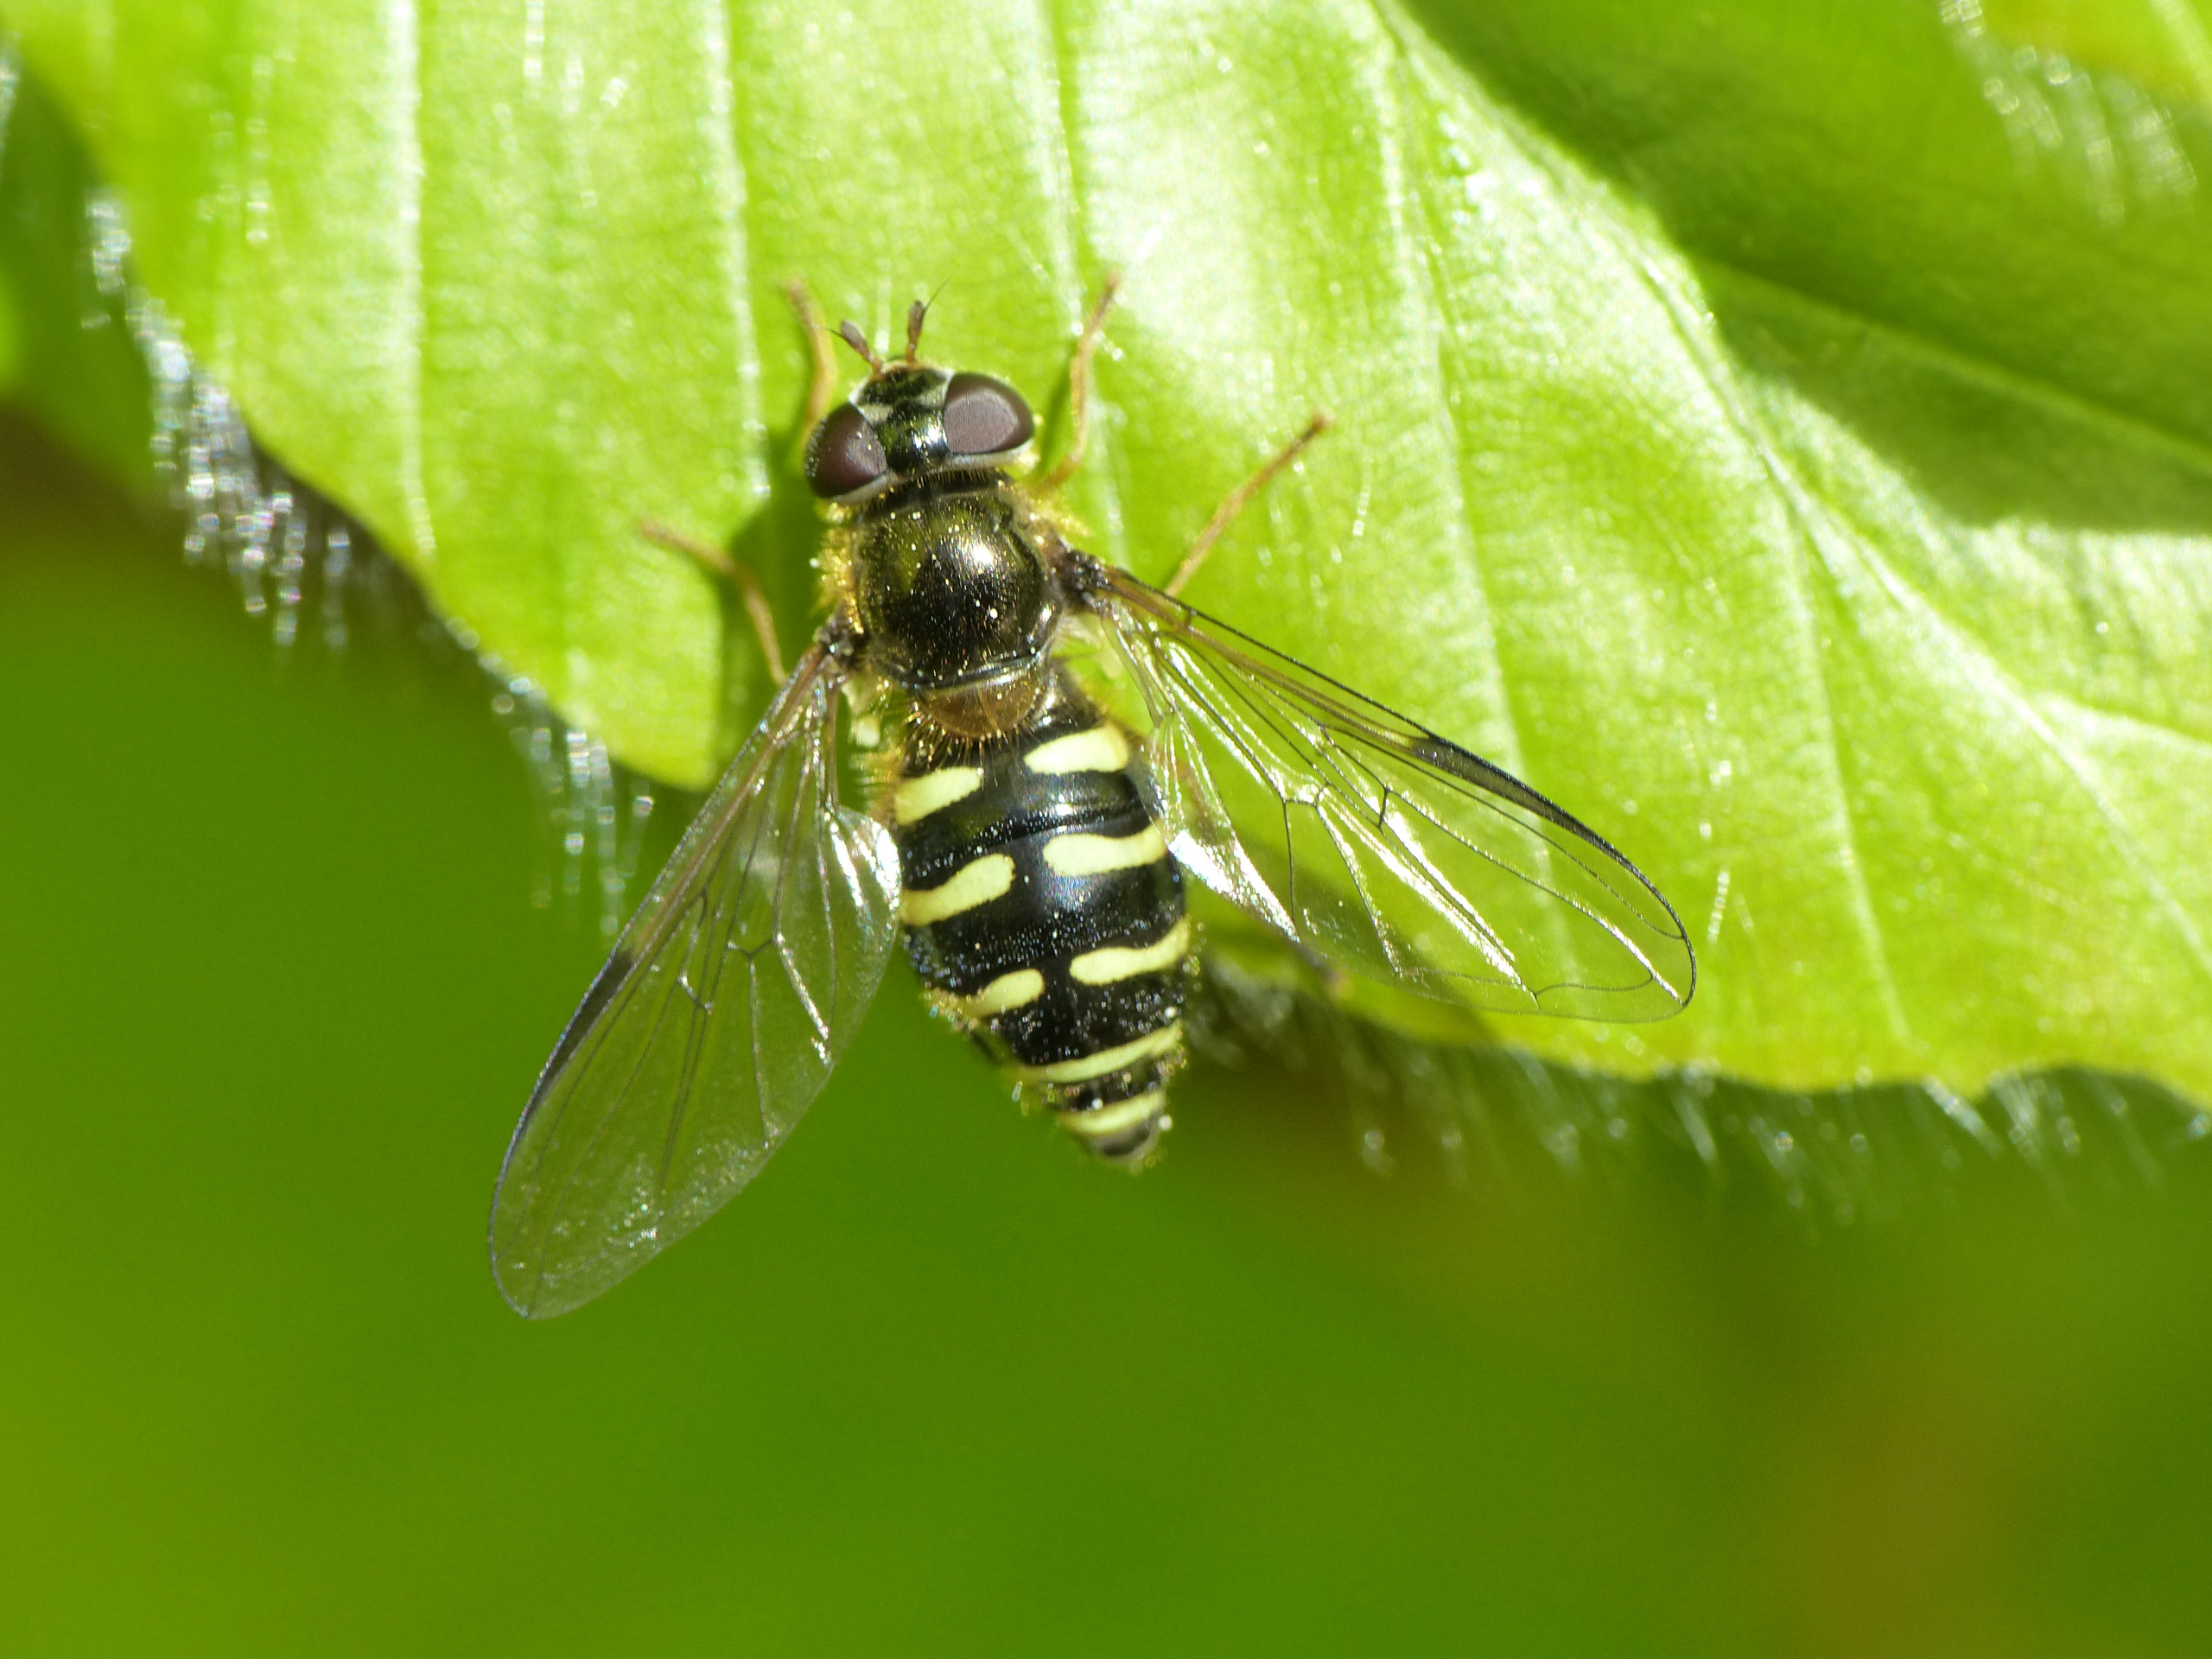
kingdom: Animalia
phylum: Arthropoda
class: Insecta
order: Diptera
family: Syrphidae
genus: Dasysyrphus
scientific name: Dasysyrphus venustus
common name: Smuk skovsvirreflue
